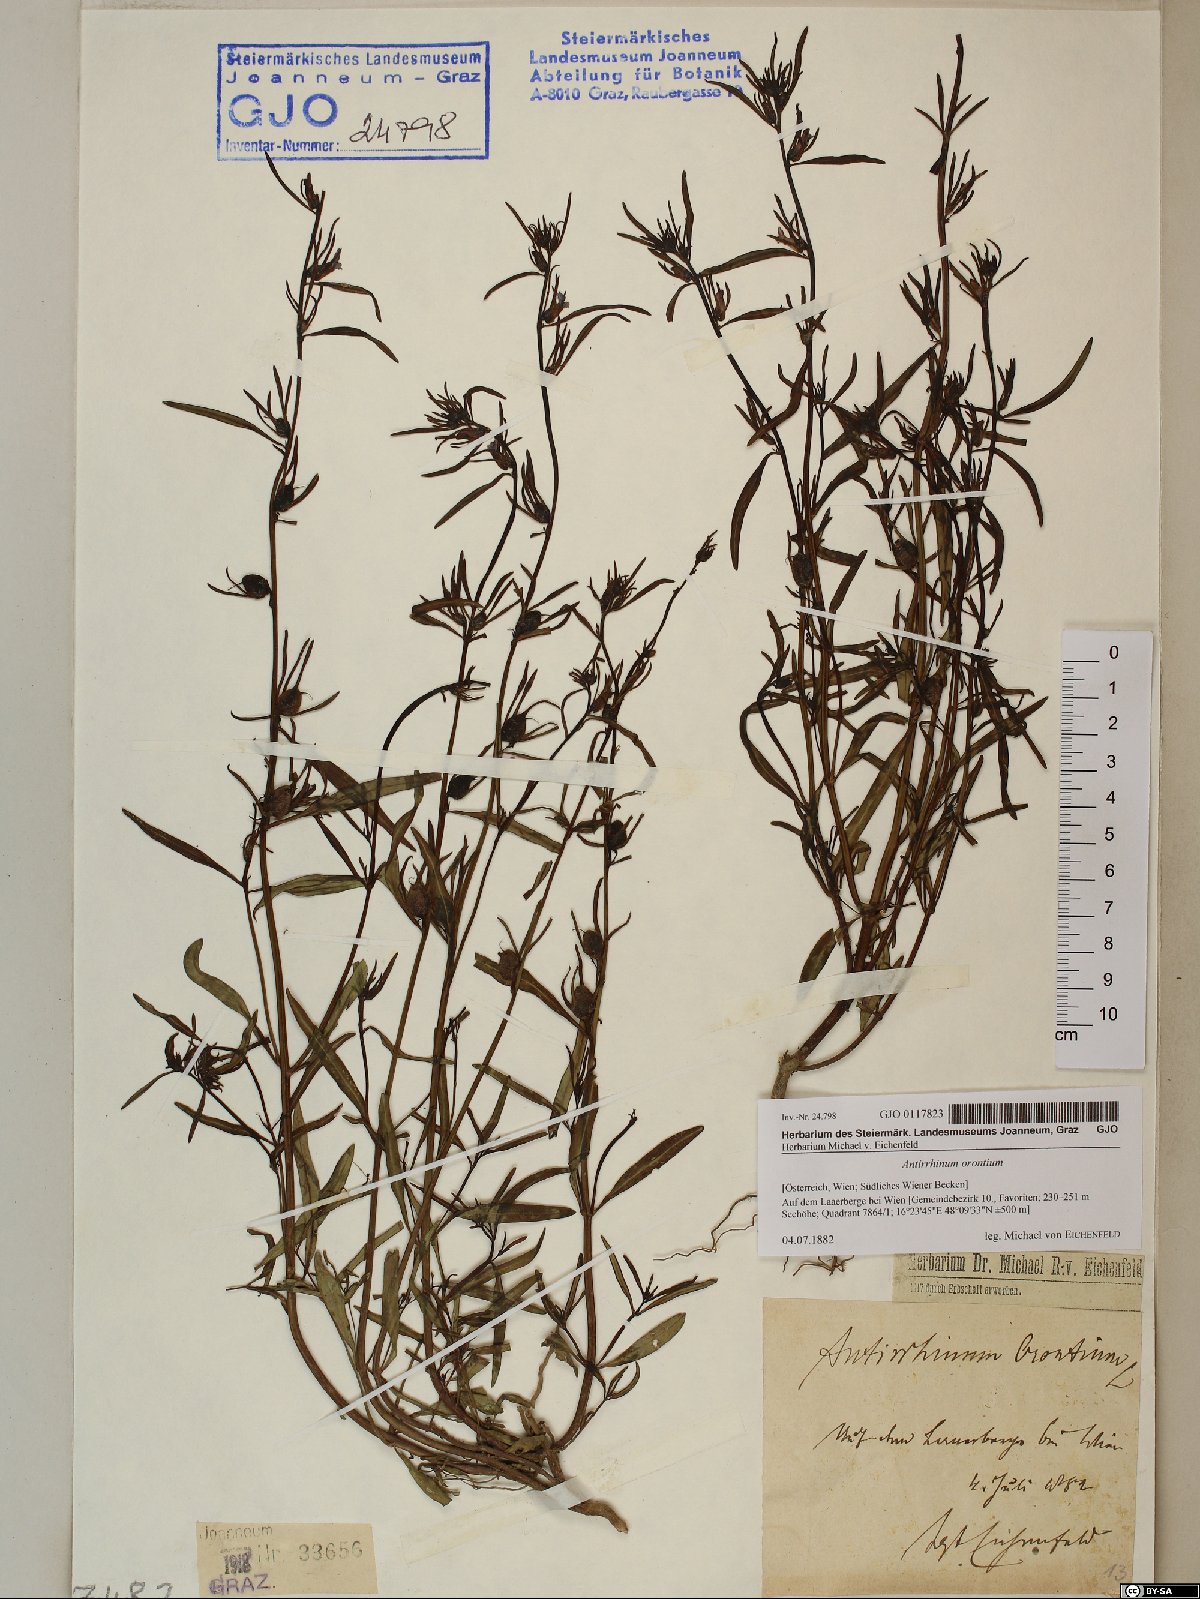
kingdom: Plantae
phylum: Tracheophyta
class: Magnoliopsida
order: Lamiales
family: Plantaginaceae
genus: Misopates
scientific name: Misopates orontium
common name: Weasel's-snout
